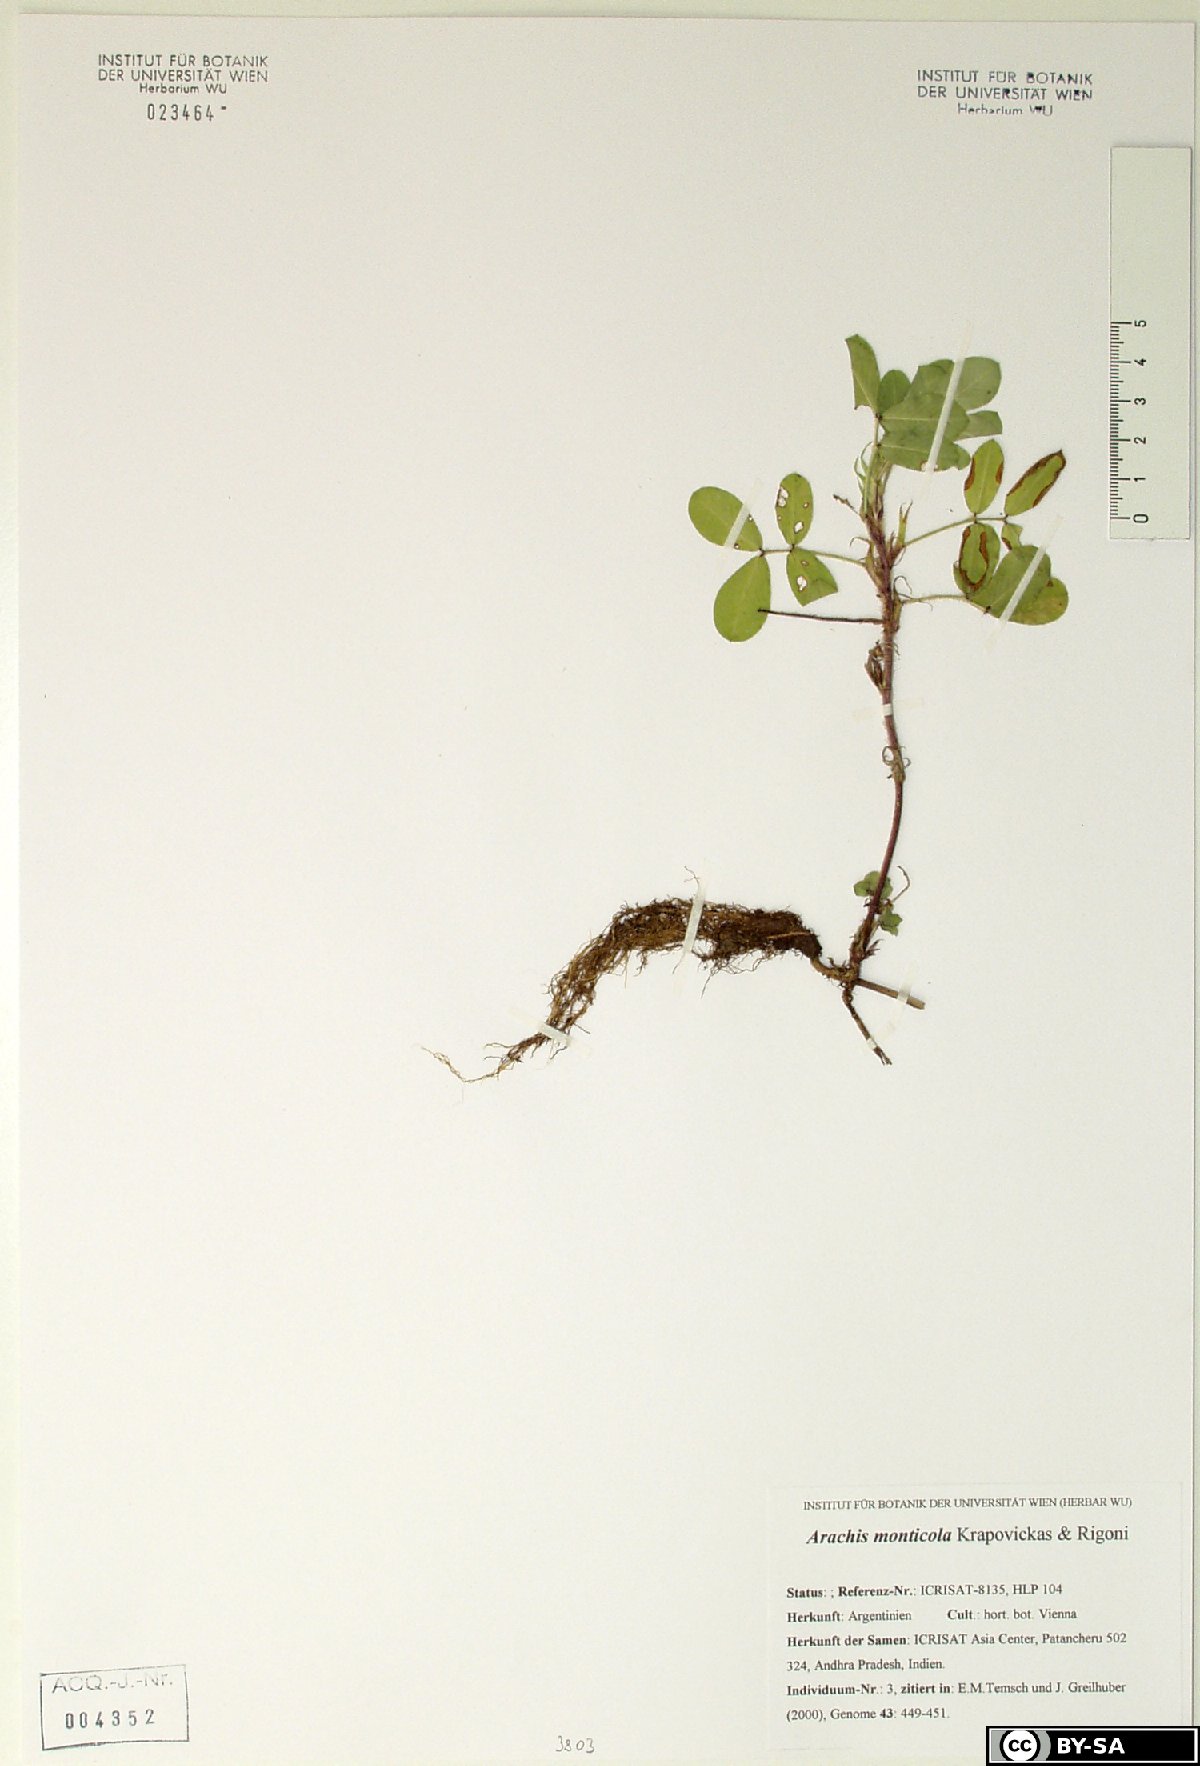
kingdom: Plantae
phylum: Tracheophyta
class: Magnoliopsida
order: Fabales
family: Fabaceae
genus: Arachis
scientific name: Arachis monticola
